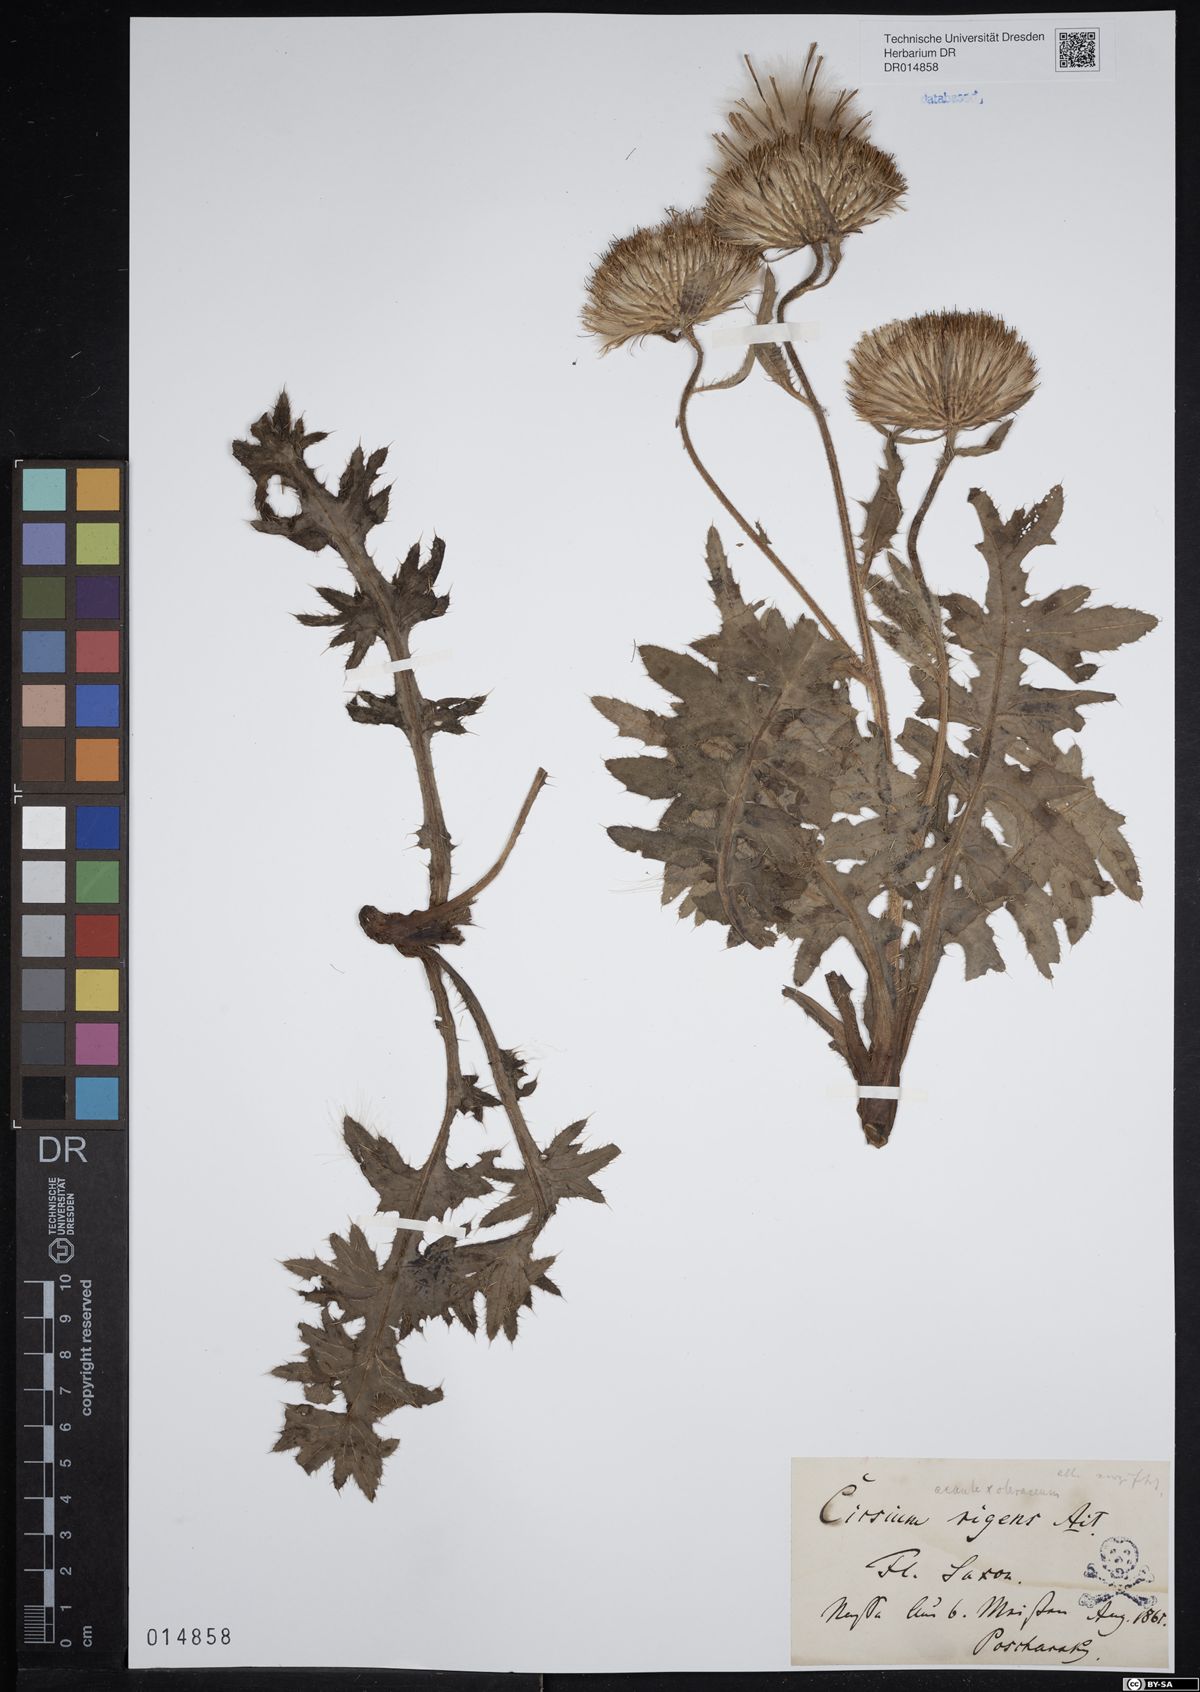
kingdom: Plantae
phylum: Tracheophyta
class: Magnoliopsida
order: Asterales
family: Asteraceae
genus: Cirsium
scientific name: Cirsium rigens
